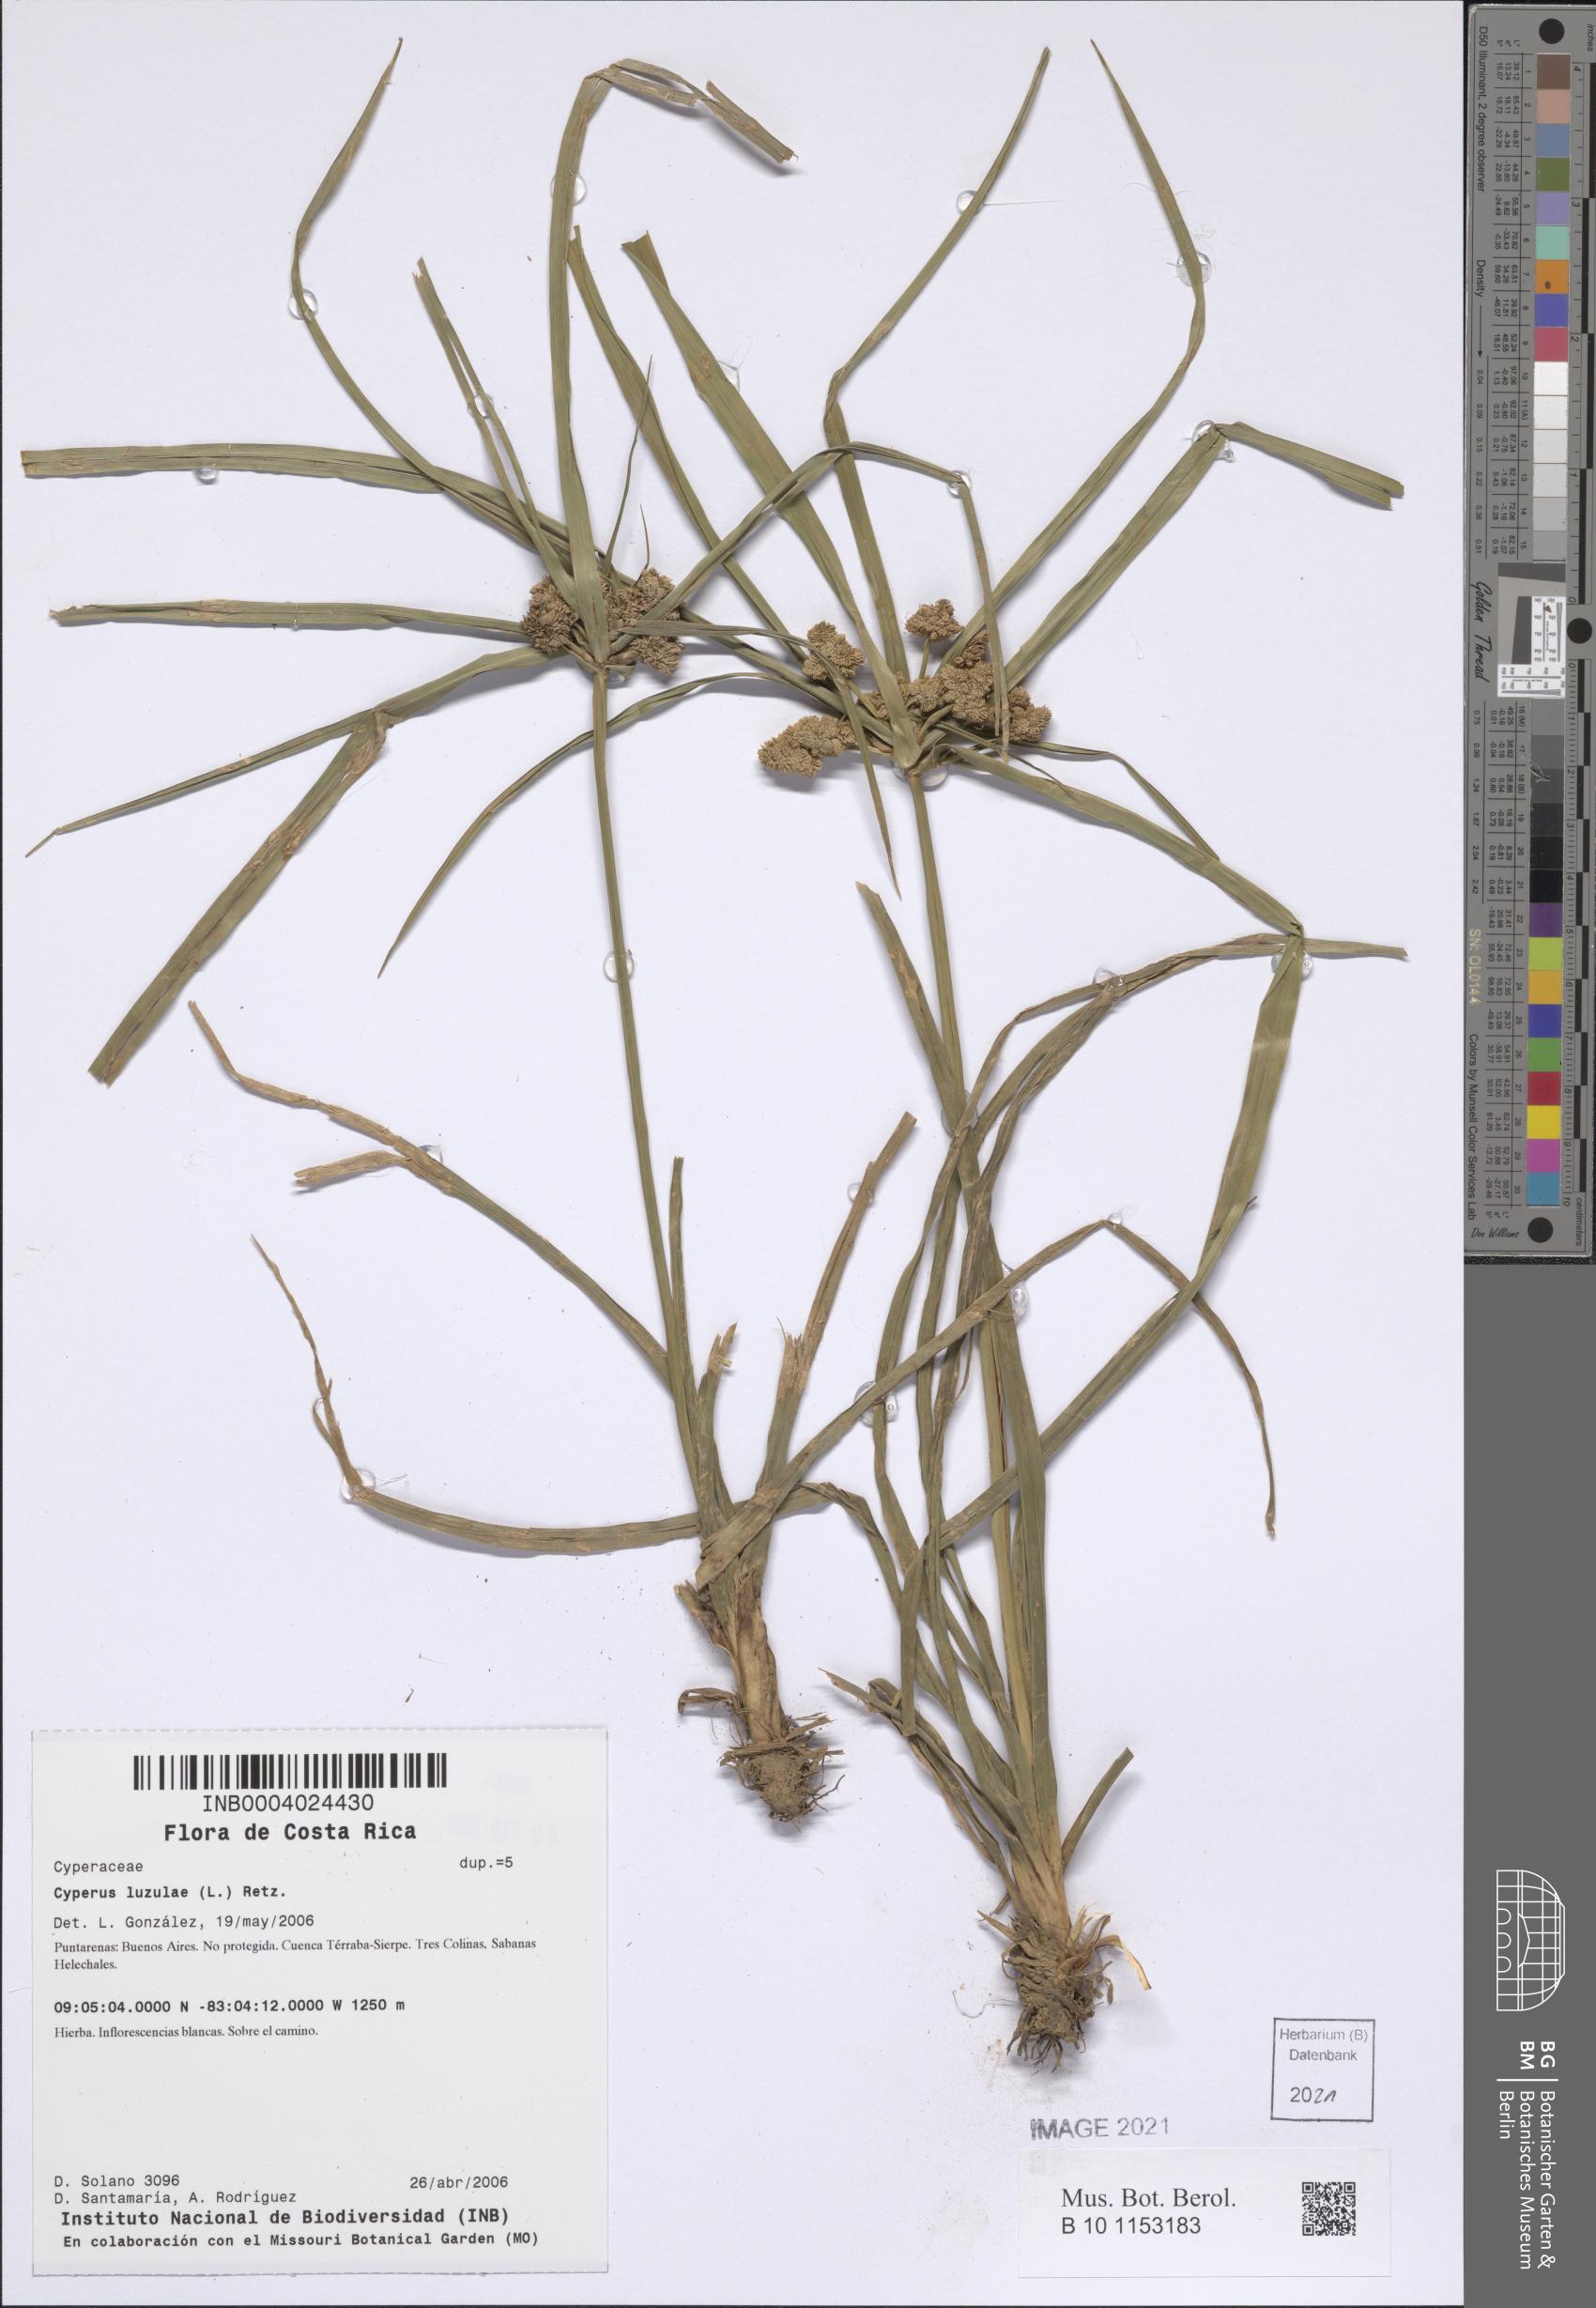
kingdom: Plantae
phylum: Tracheophyta
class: Liliopsida
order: Poales
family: Cyperaceae
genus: Cyperus
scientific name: Cyperus luzulae
